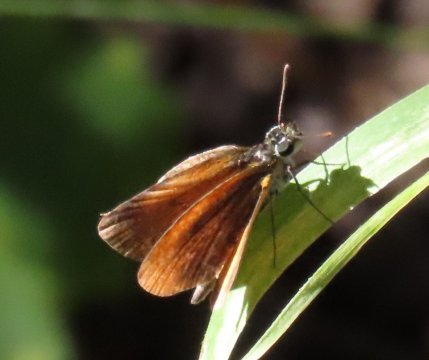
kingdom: Animalia
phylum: Arthropoda
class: Insecta
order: Lepidoptera
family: Hesperiidae
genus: Ancyloxypha
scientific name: Ancyloxypha numitor
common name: Least Skipper
